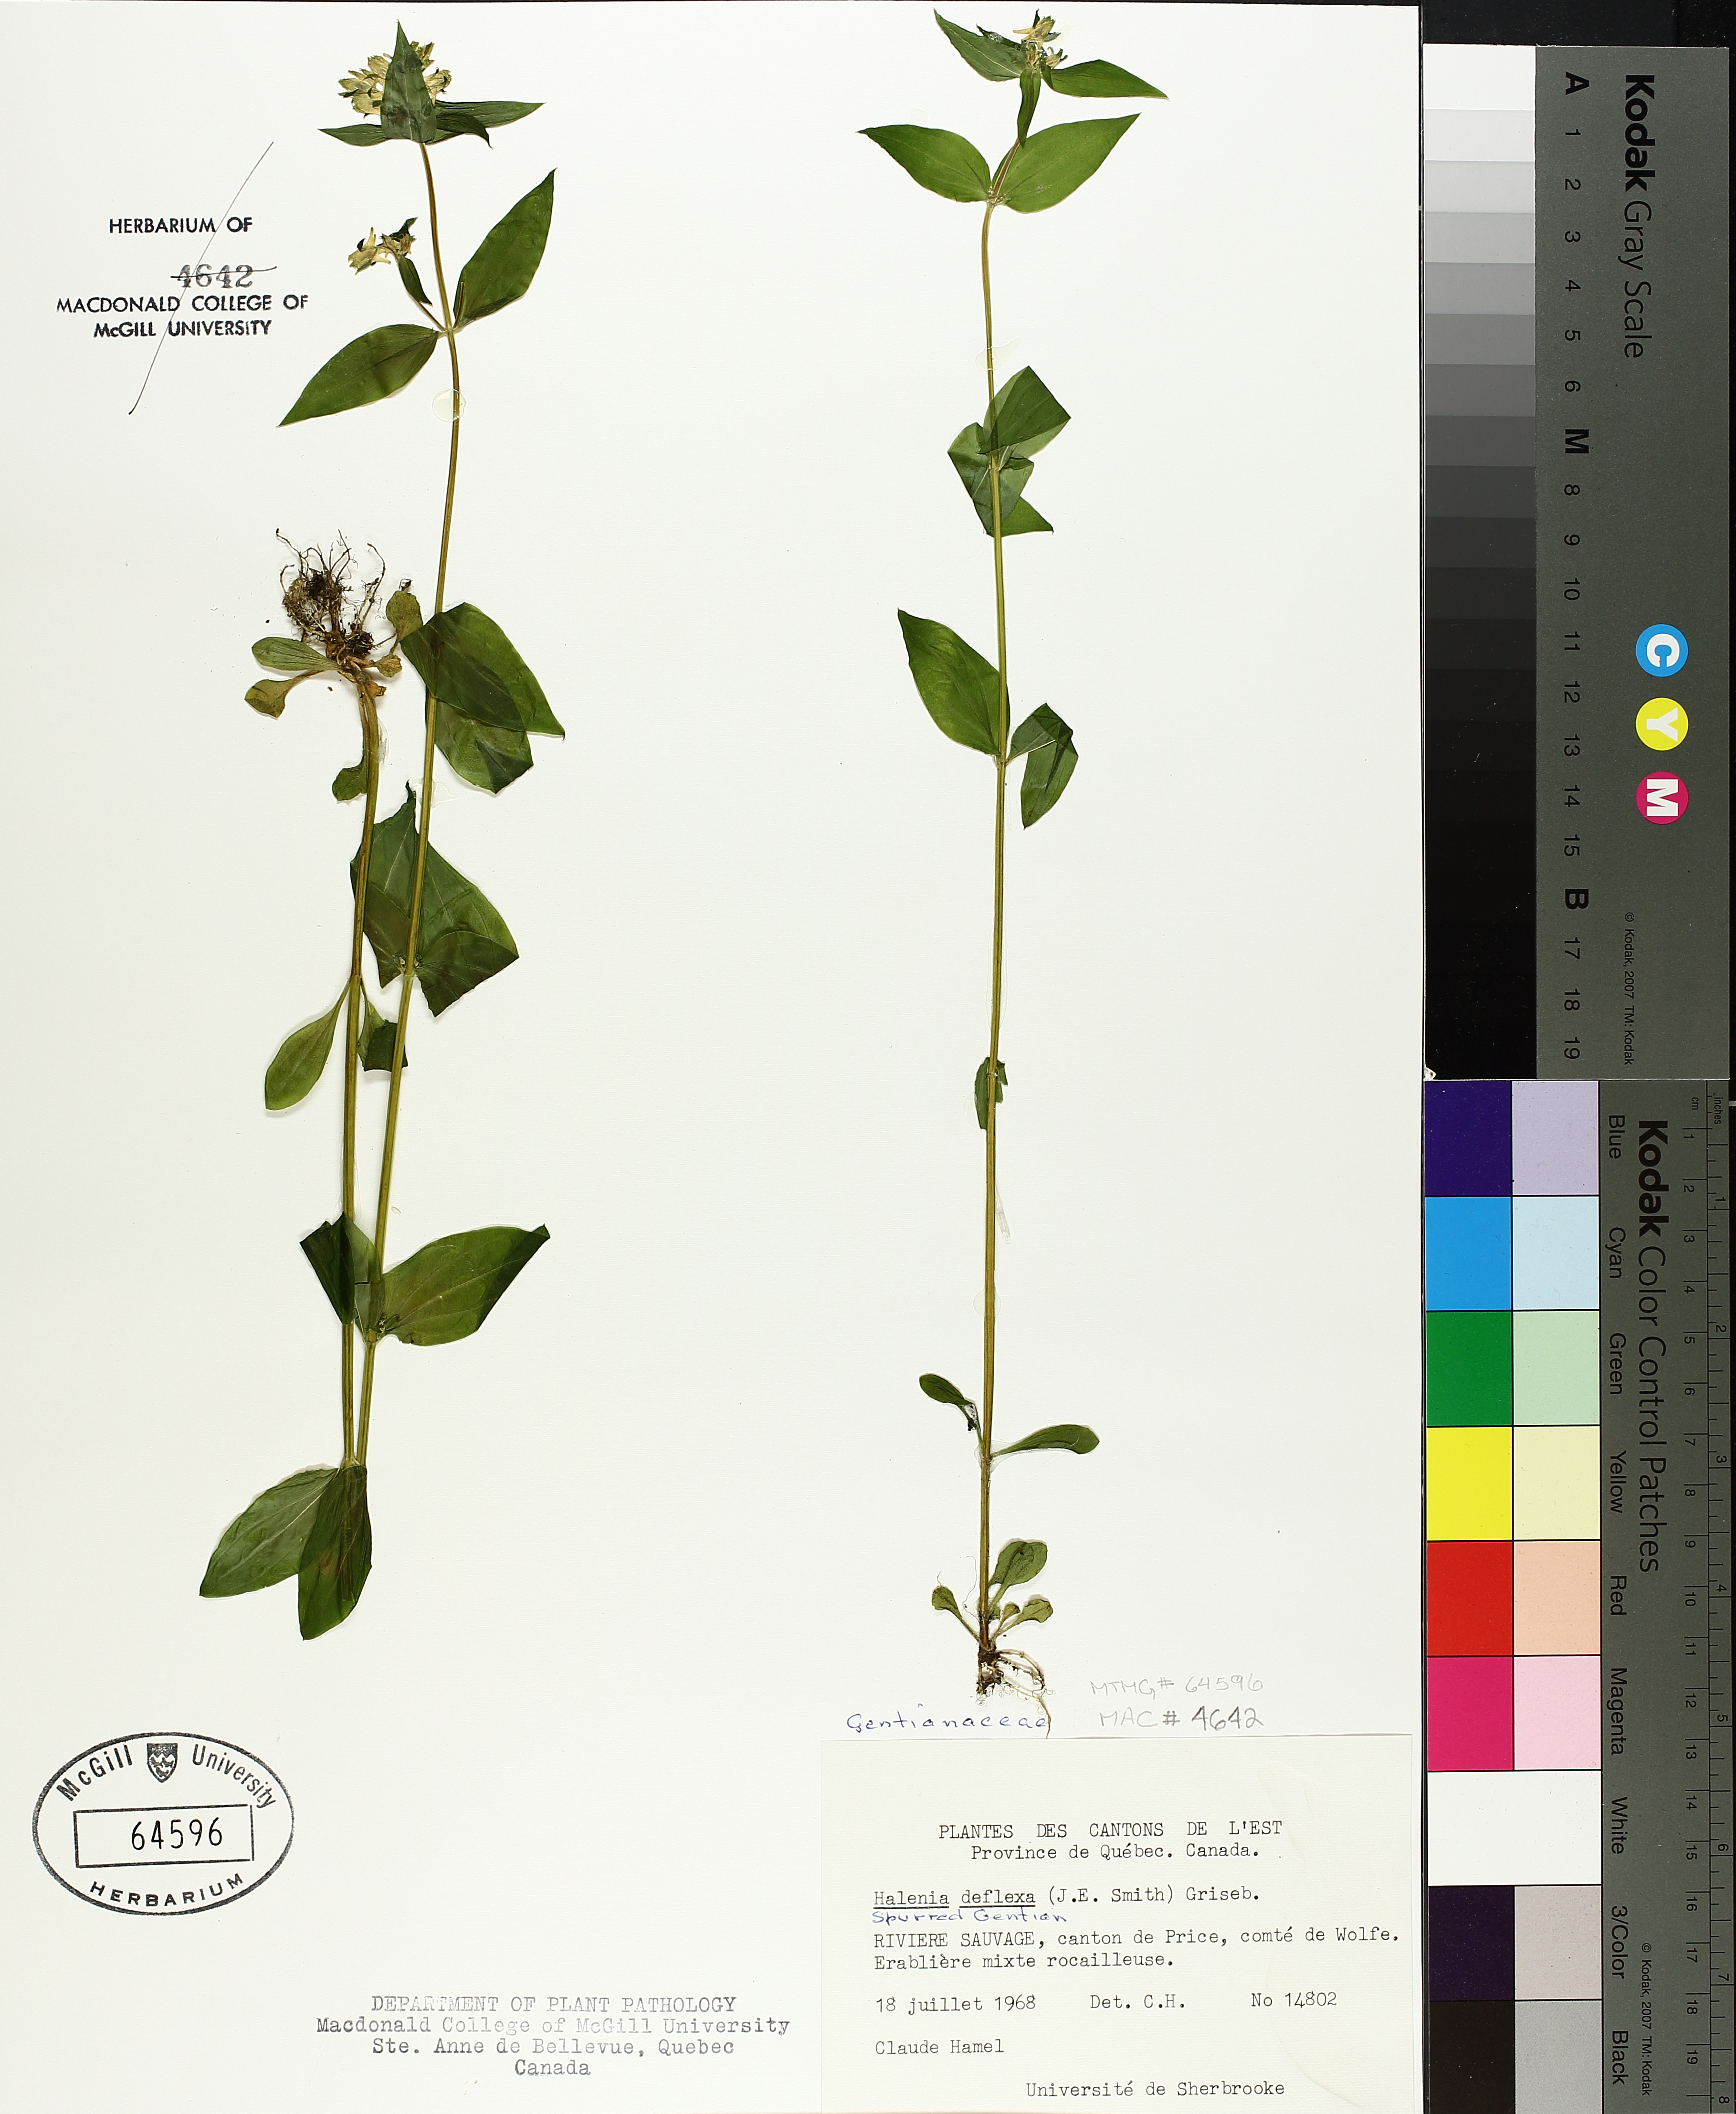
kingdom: Plantae
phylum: Tracheophyta
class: Magnoliopsida
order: Gentianales
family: Gentianaceae
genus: Halenia
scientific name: Halenia deflexa
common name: American spurred gentian
